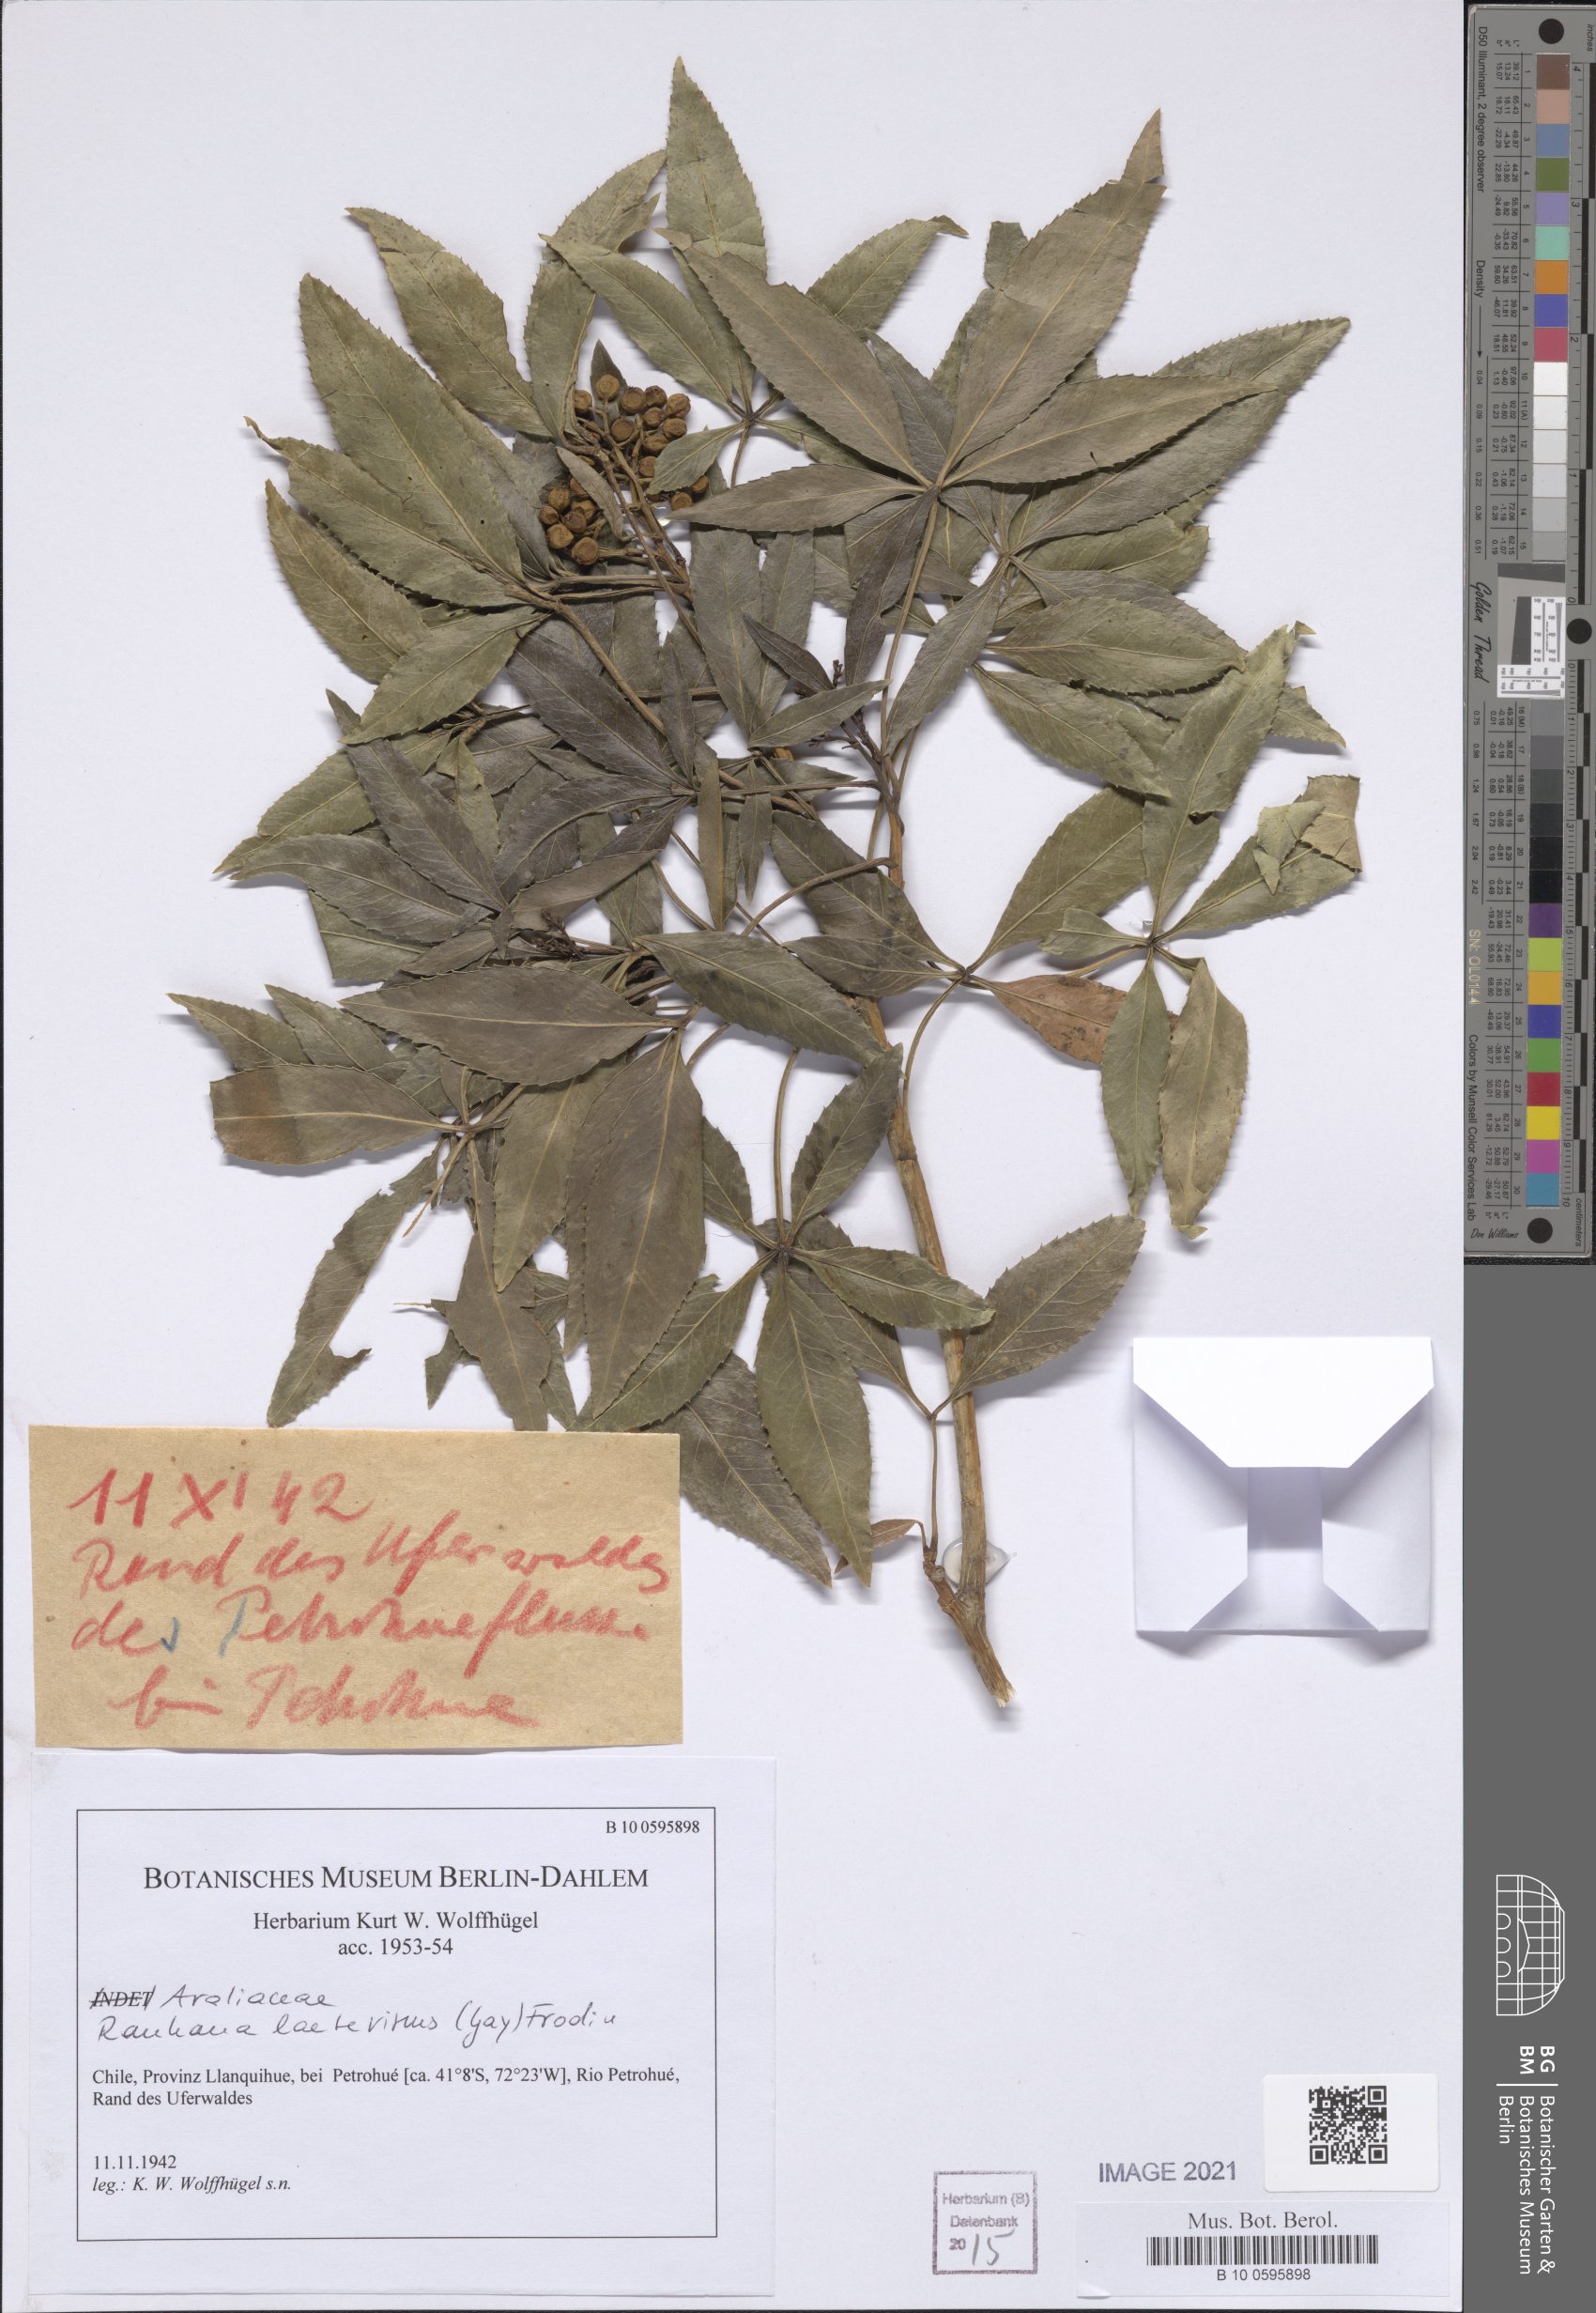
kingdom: Plantae
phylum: Tracheophyta
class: Magnoliopsida
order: Apiales
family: Araliaceae
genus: Raukaua
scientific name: Raukaua laetevirens
